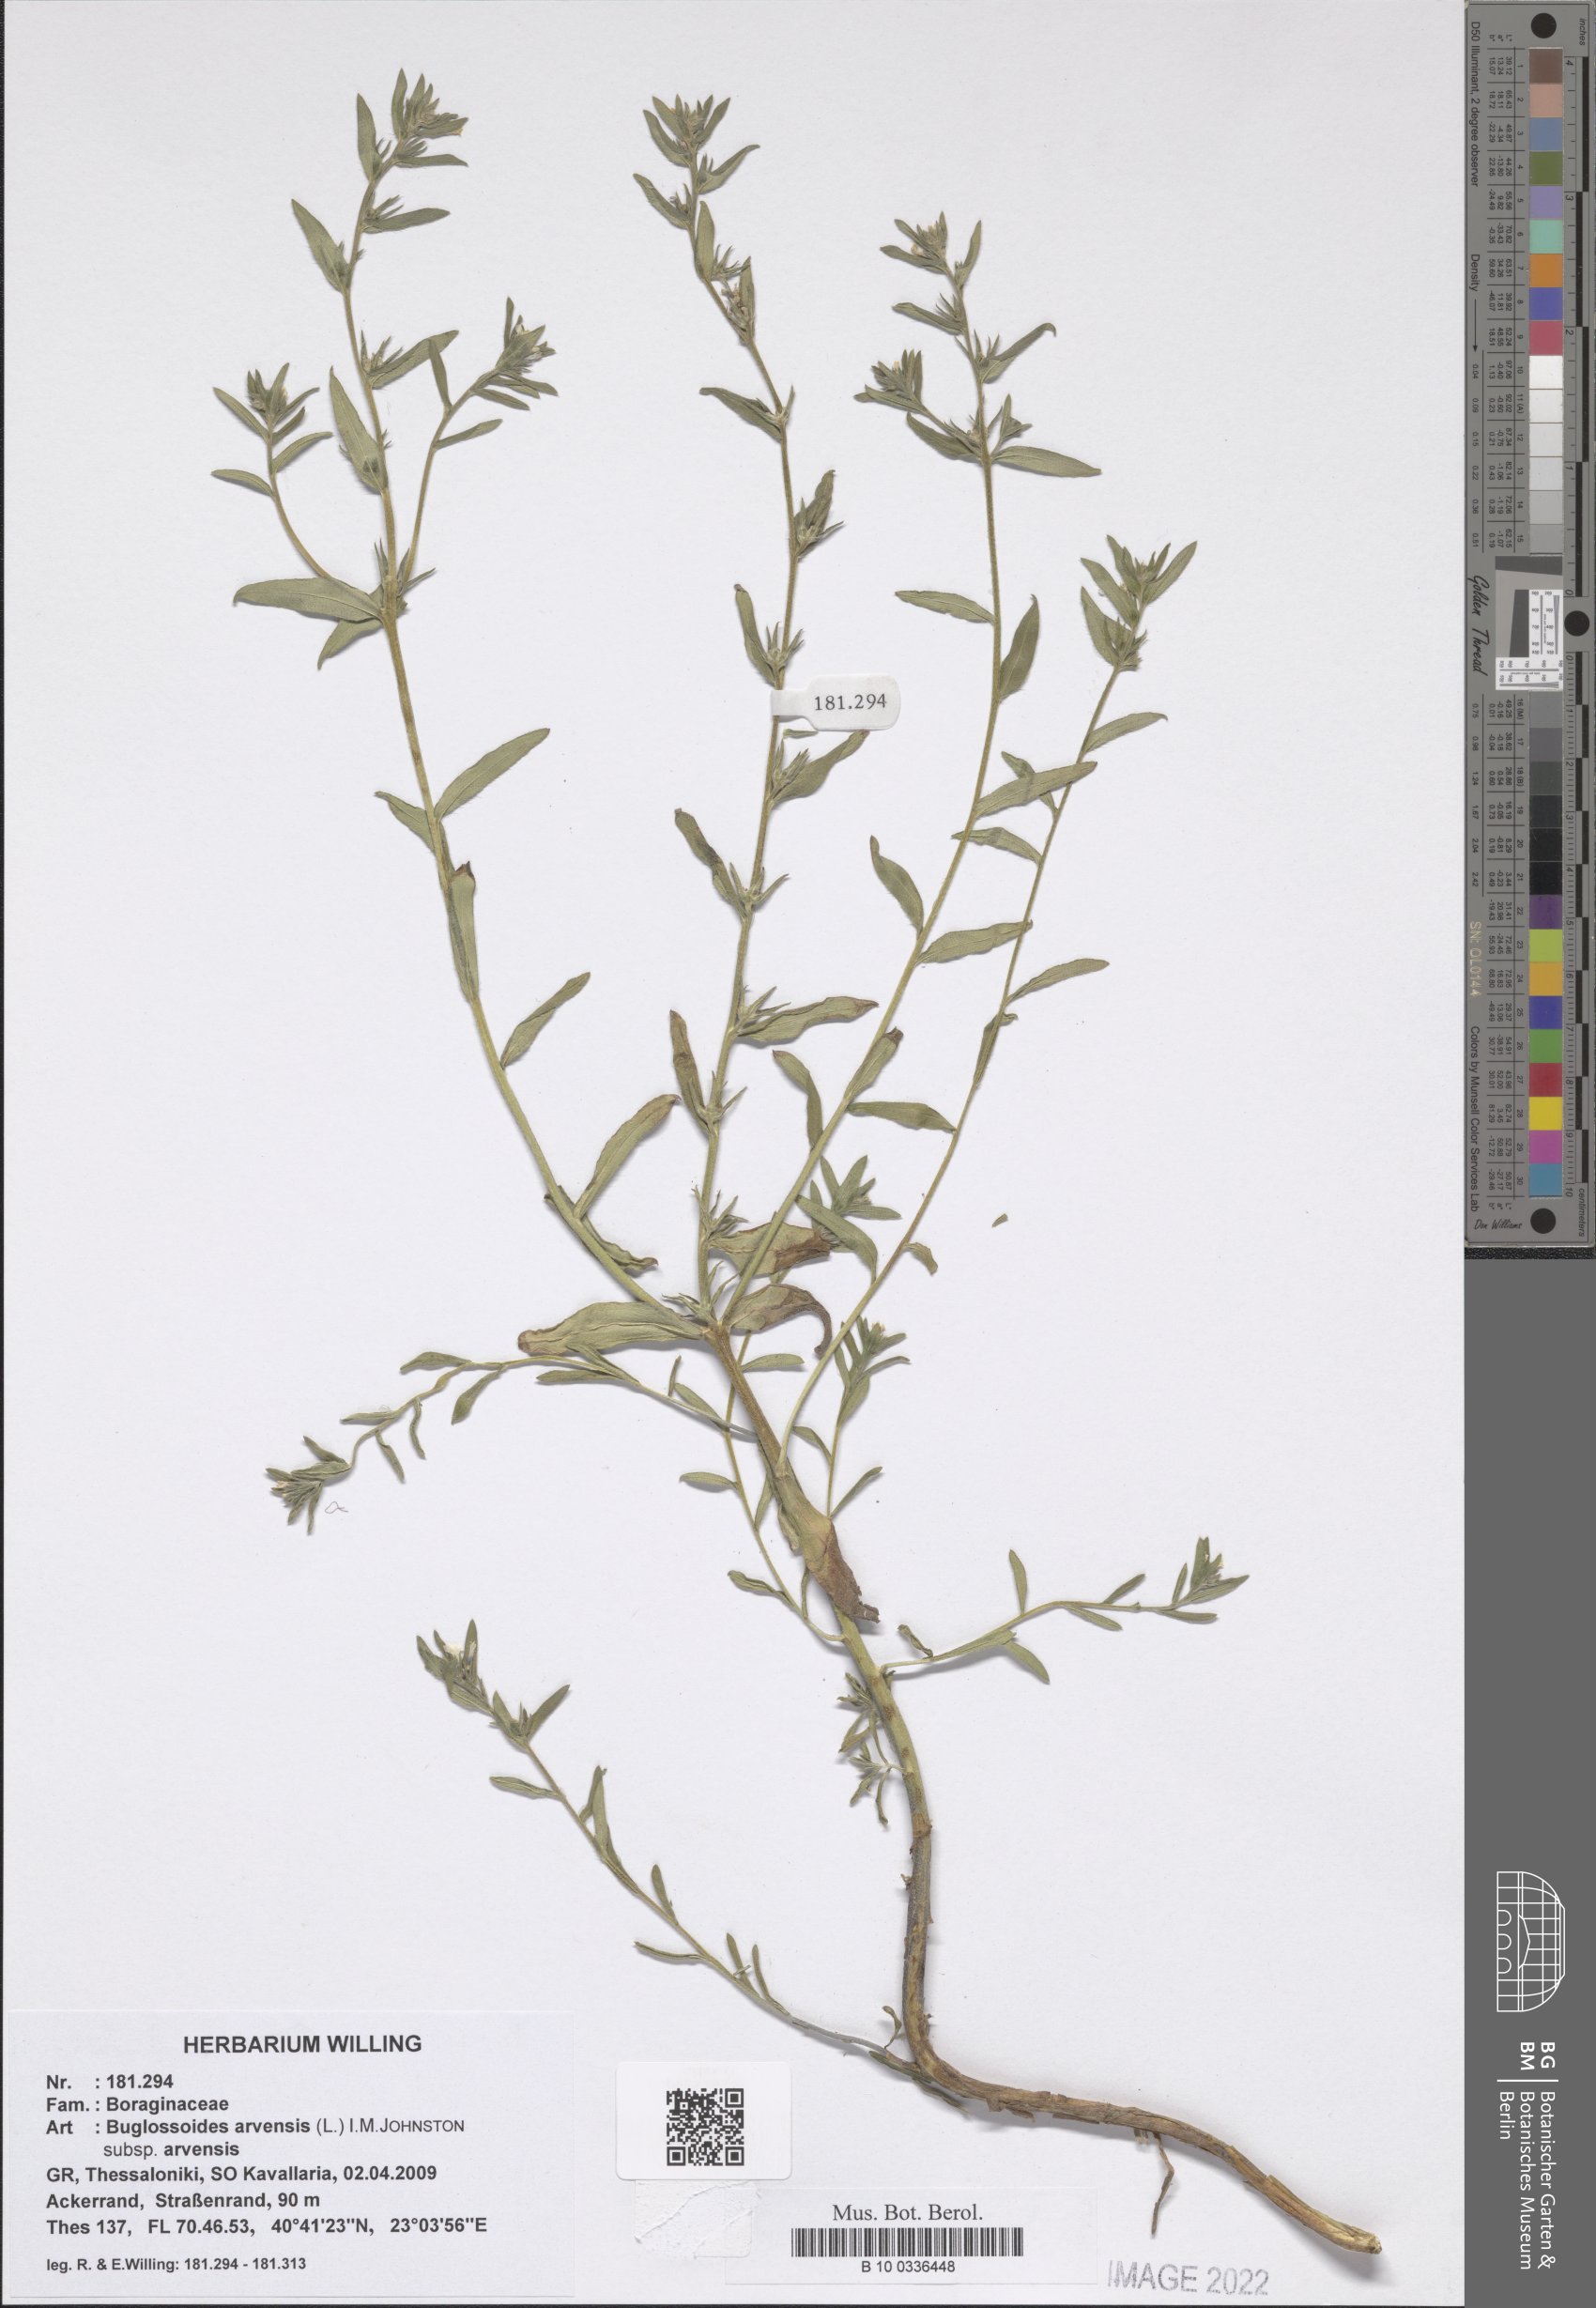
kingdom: Plantae
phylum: Tracheophyta
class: Magnoliopsida
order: Boraginales
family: Boraginaceae
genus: Buglossoides
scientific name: Buglossoides arvensis
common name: Corn gromwell
